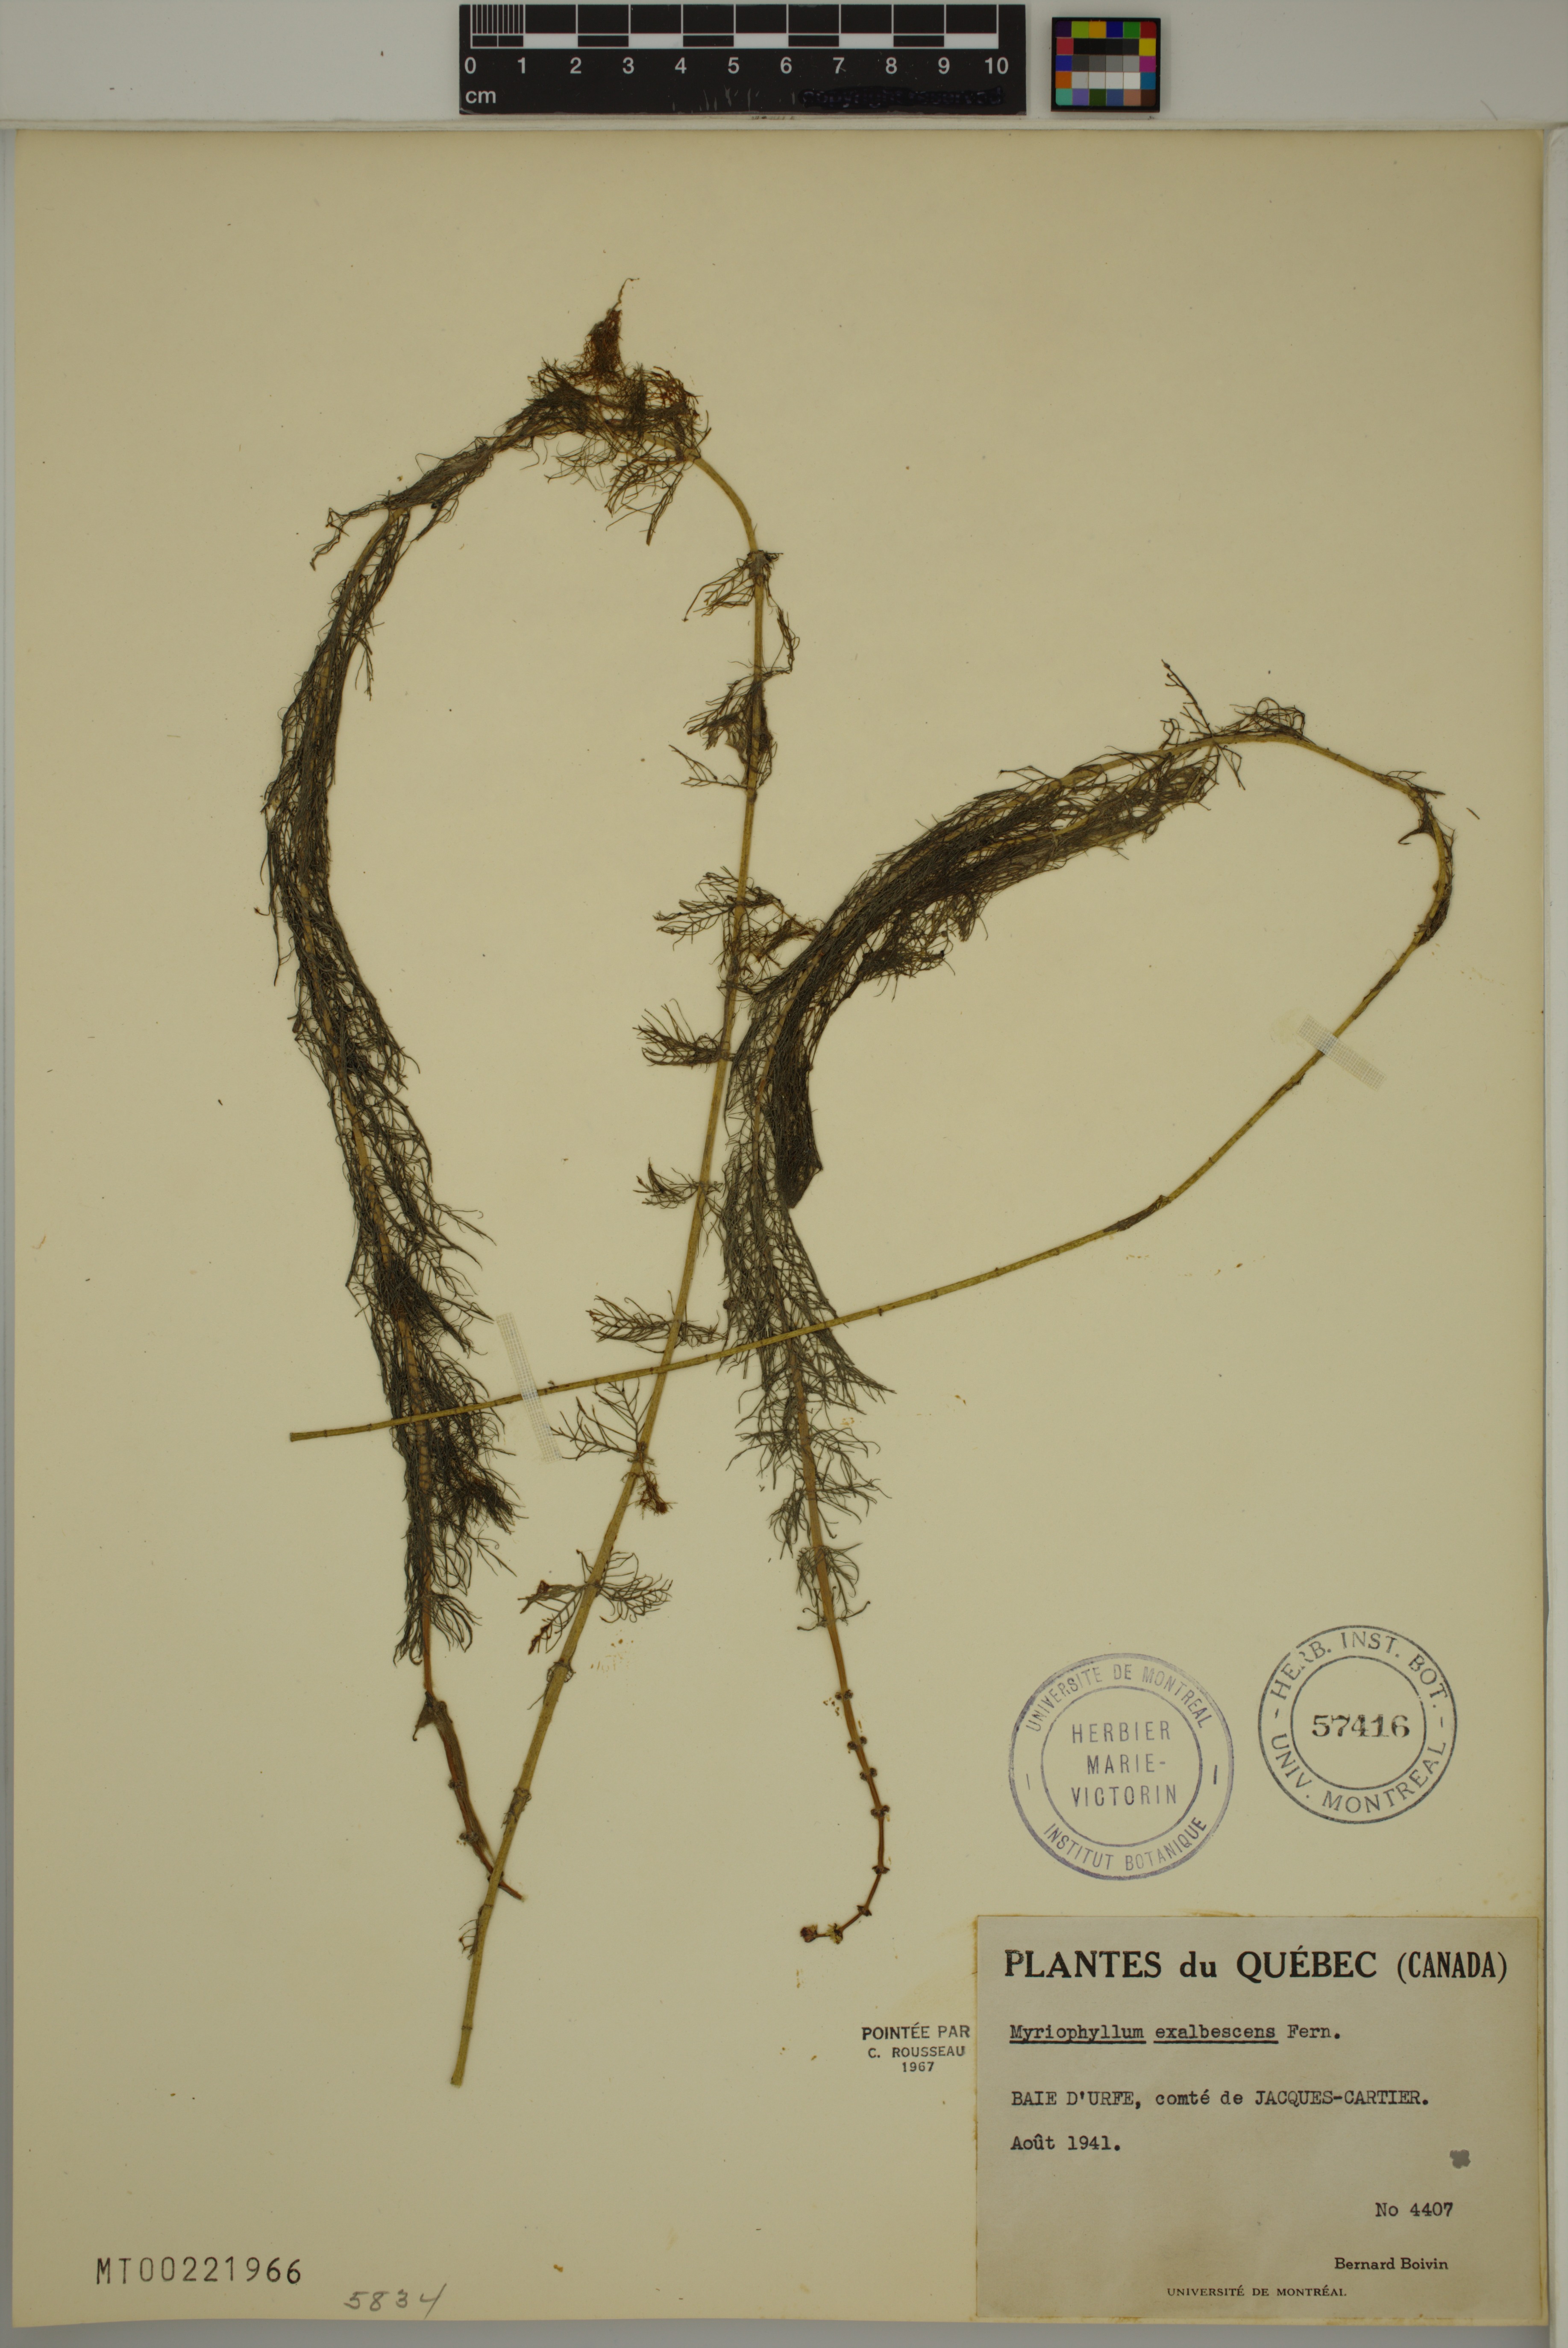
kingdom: Plantae
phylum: Tracheophyta
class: Magnoliopsida
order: Saxifragales
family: Haloragaceae
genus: Myriophyllum
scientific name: Myriophyllum sibiricum
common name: Siberian water-milfoil
